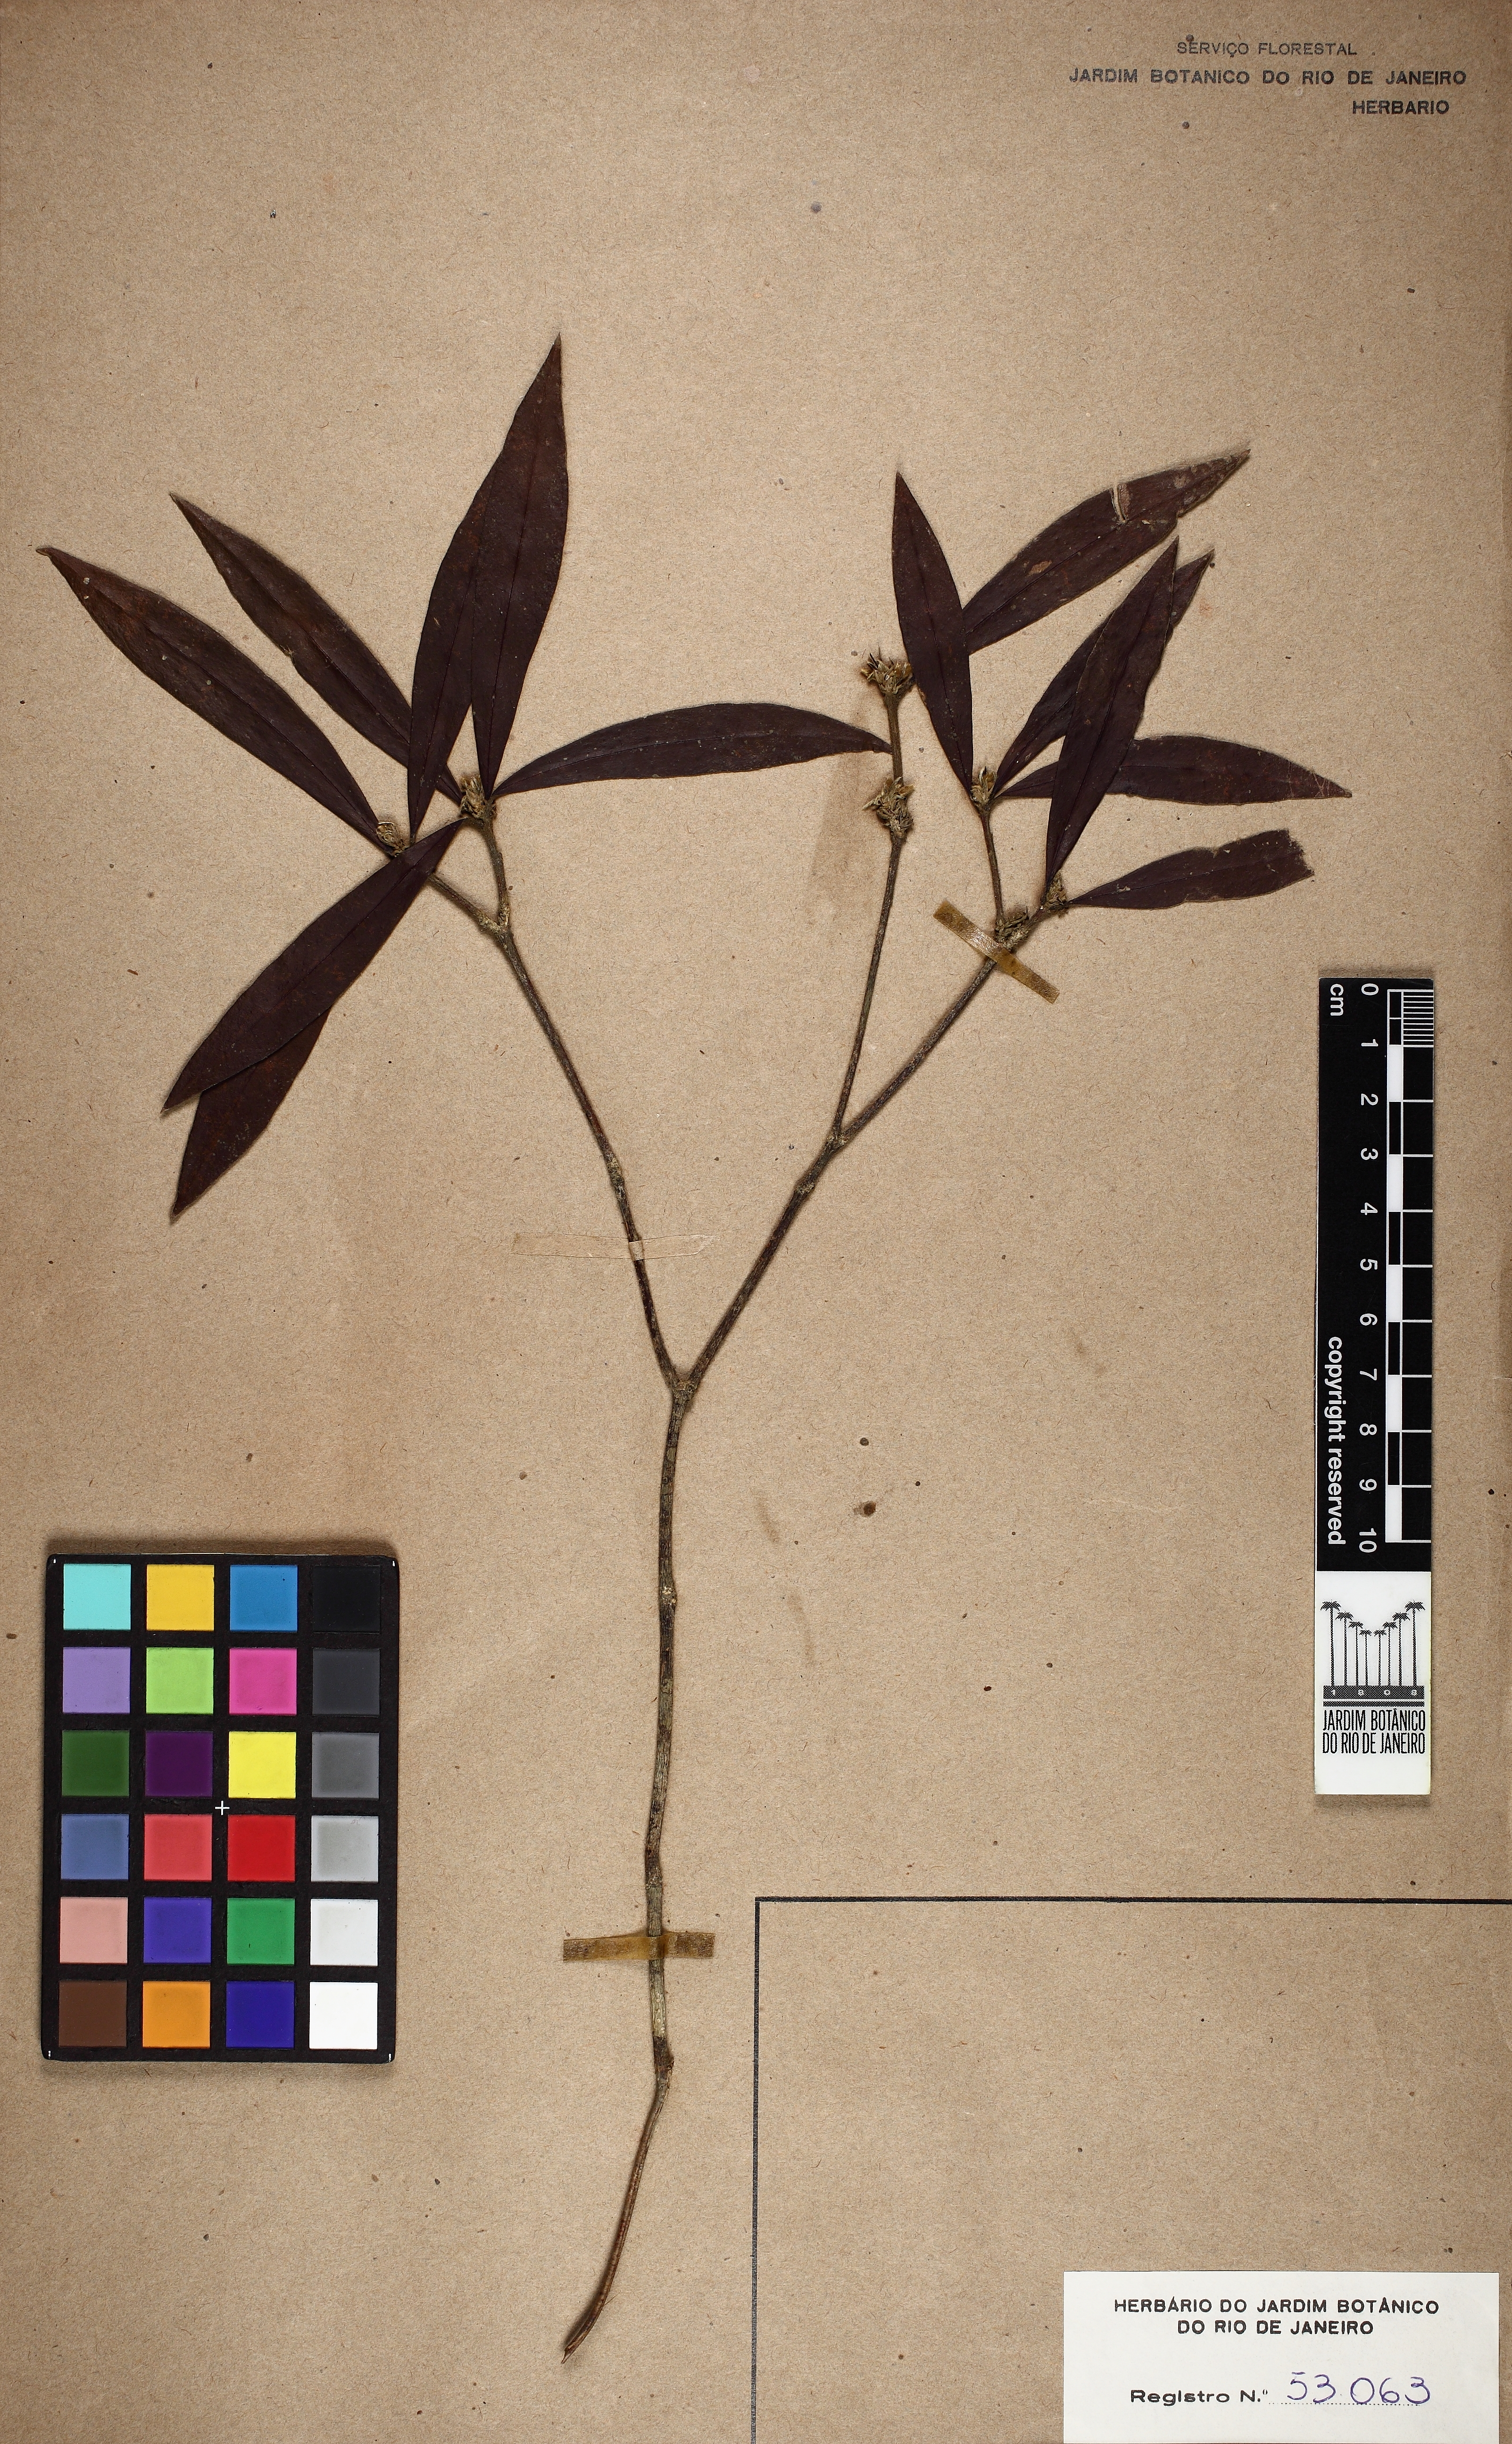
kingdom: Plantae
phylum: Tracheophyta
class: Magnoliopsida
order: Malvales
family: Thymelaeaceae
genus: Funifera
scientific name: Funifera brasiliensis
